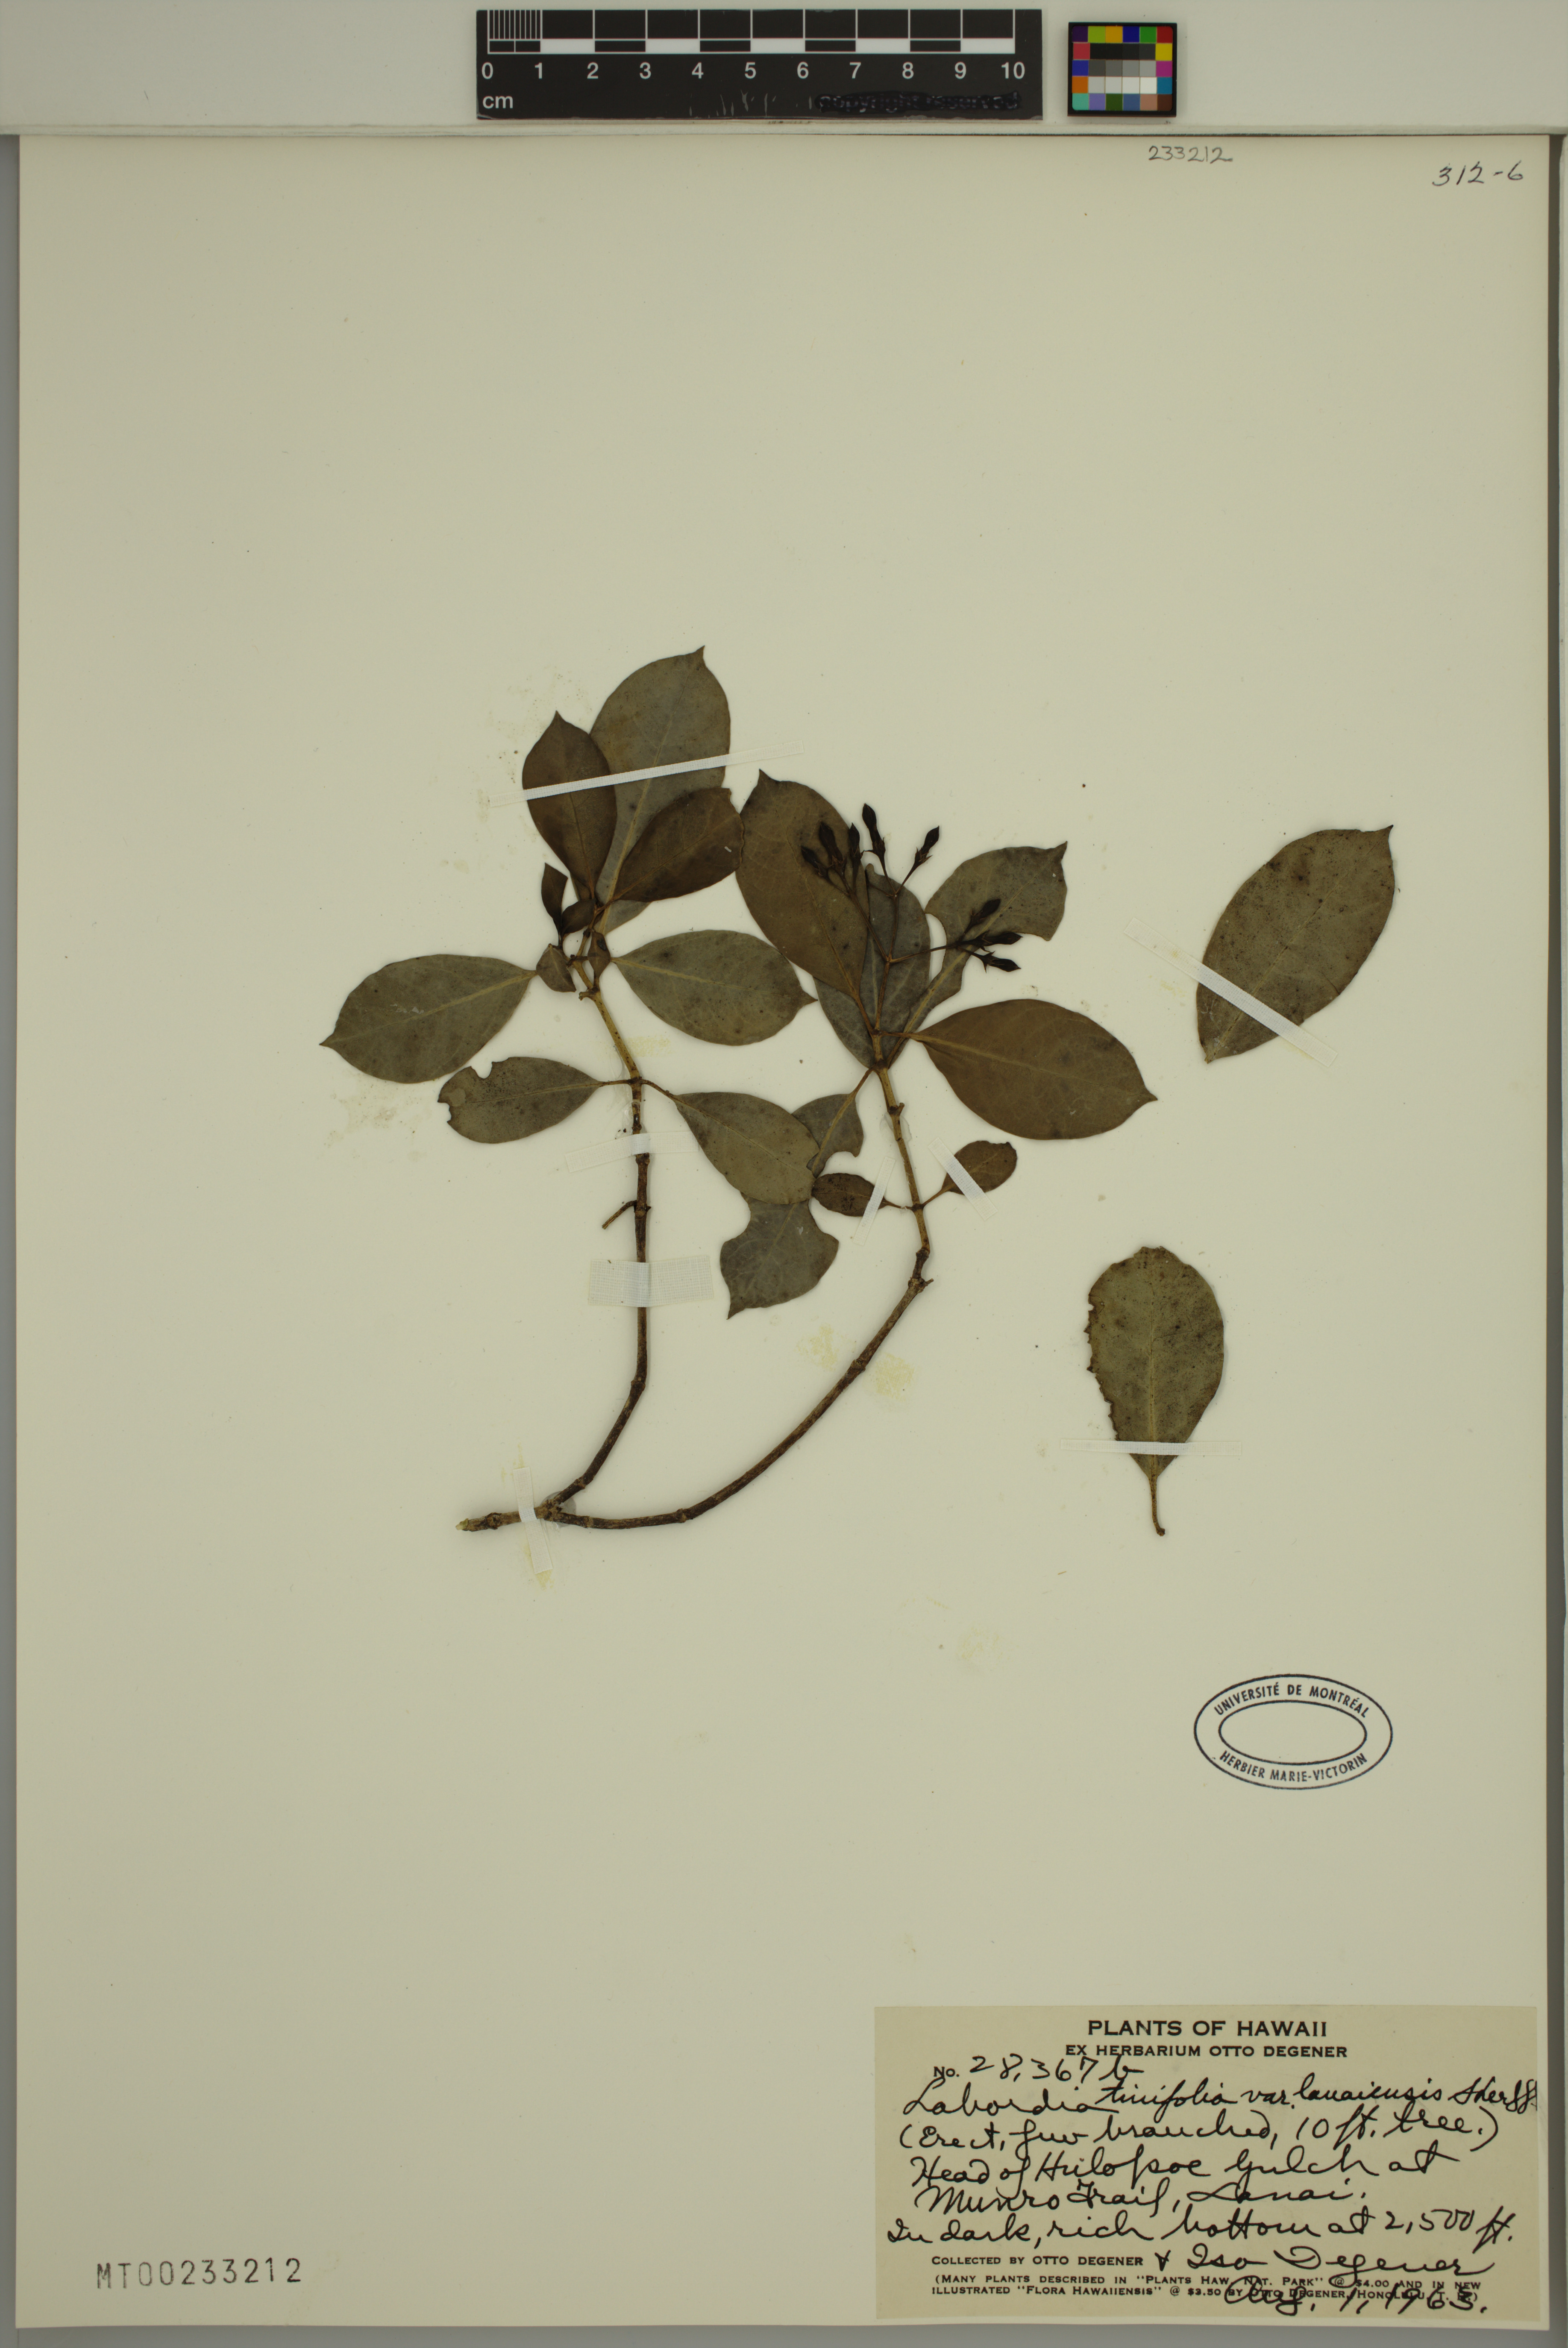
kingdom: Plantae
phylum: Tracheophyta
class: Magnoliopsida
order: Gentianales
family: Loganiaceae
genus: Geniostoma
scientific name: Geniostoma tinifolium
